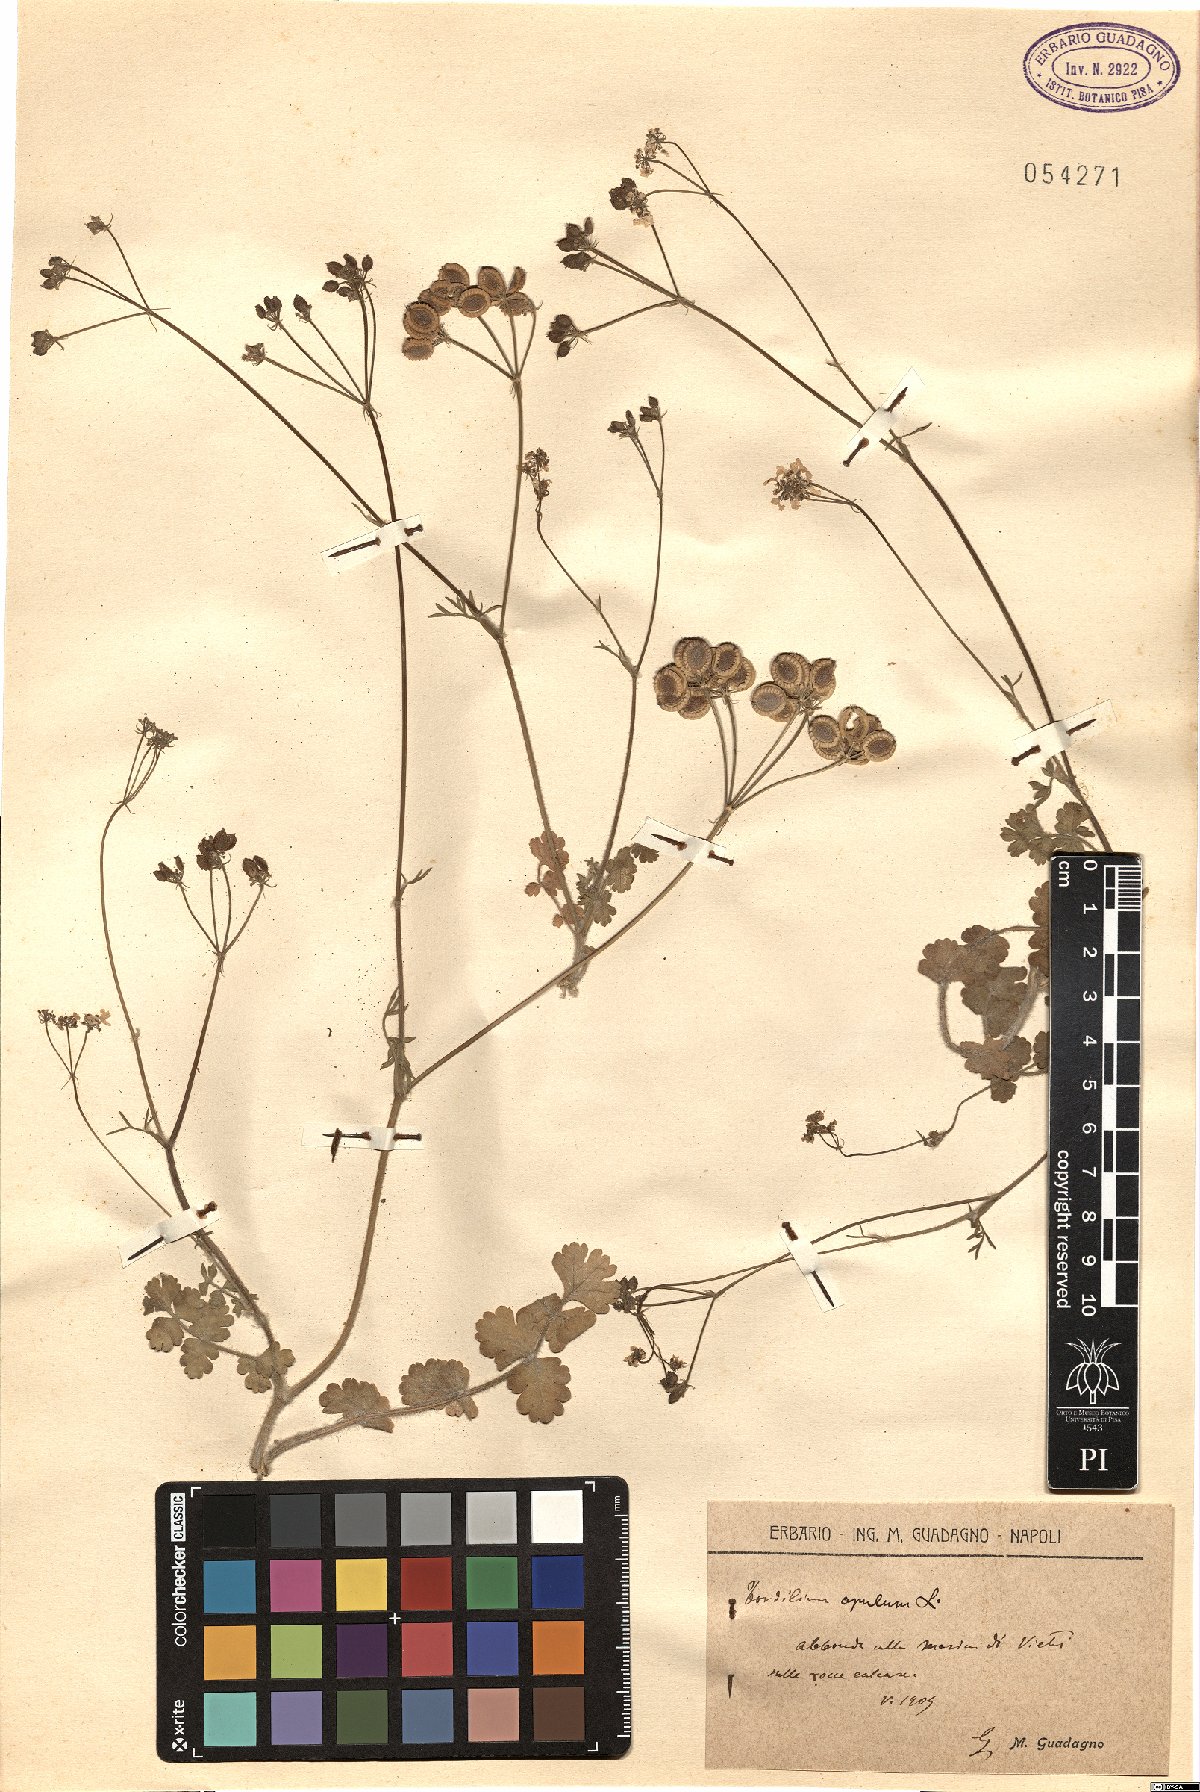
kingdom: Plantae
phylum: Tracheophyta
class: Magnoliopsida
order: Apiales
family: Apiaceae
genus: Tordylium
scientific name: Tordylium apulum
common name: Mediterranean hartwort
